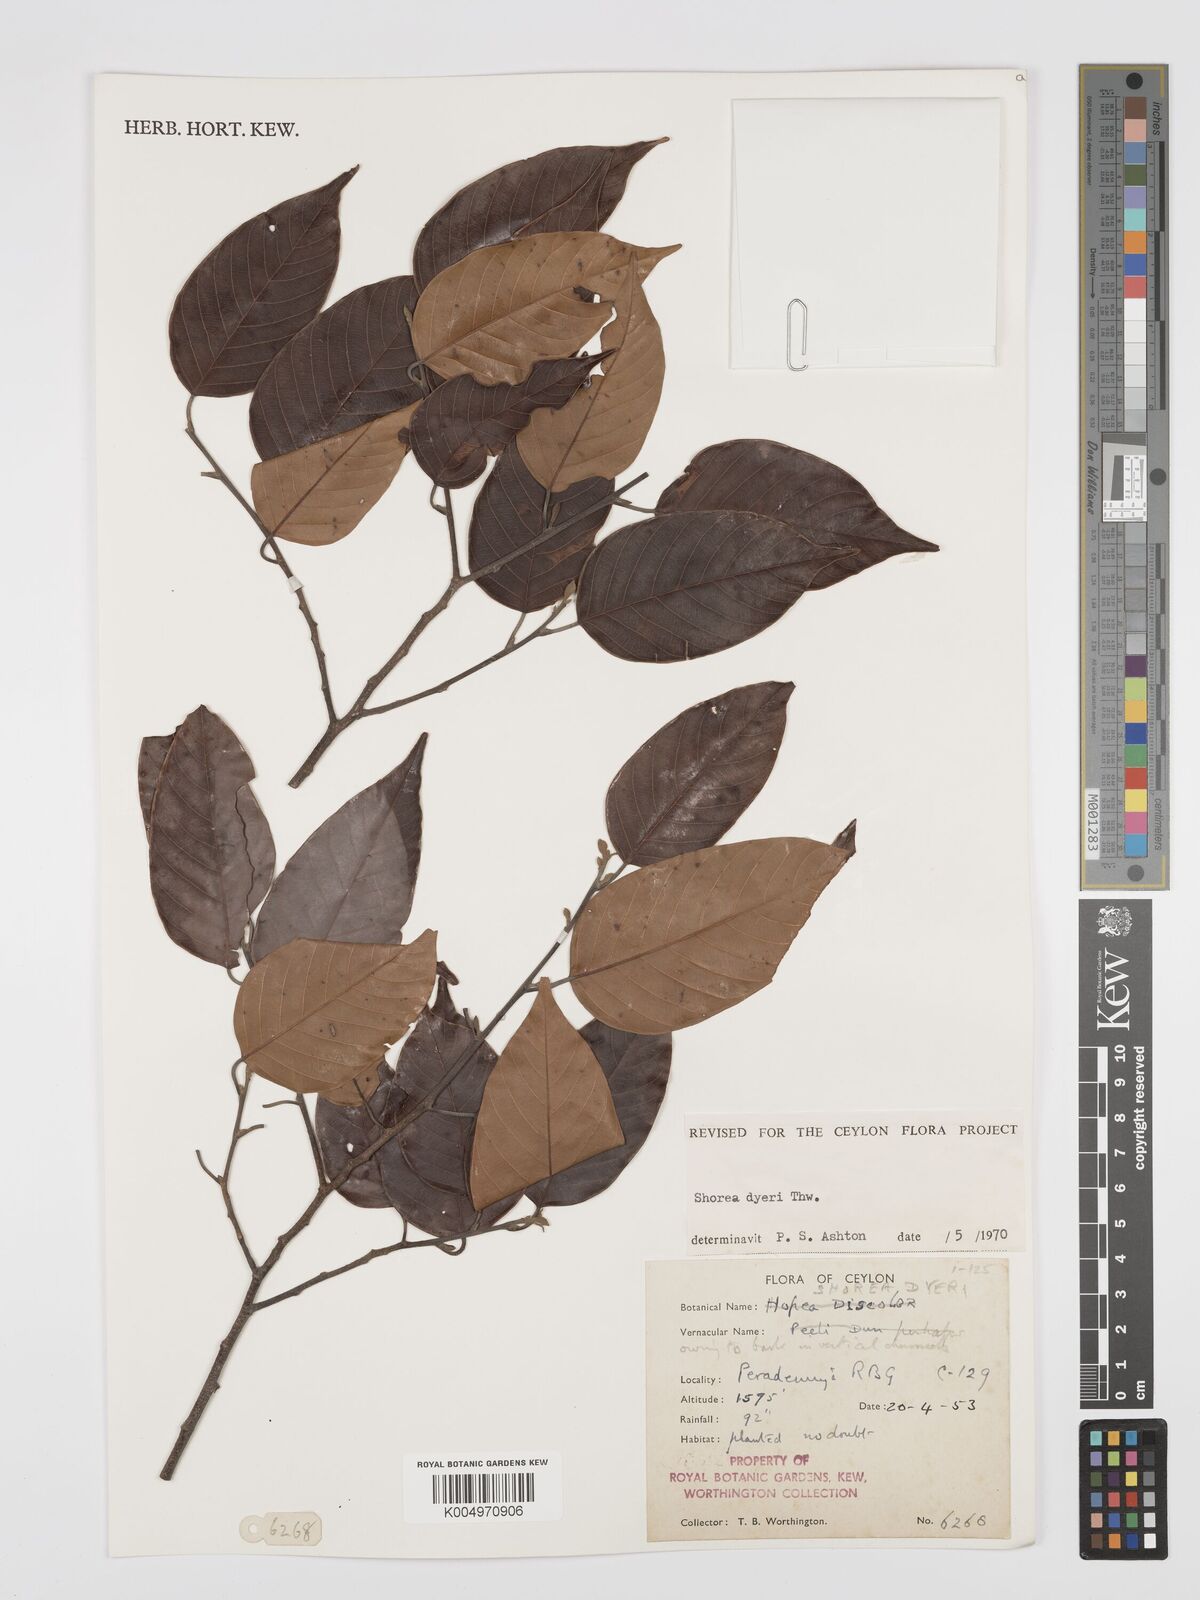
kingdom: Plantae
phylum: Tracheophyta
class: Magnoliopsida
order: Malvales
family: Dipterocarpaceae
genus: Shorea
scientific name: Shorea dyeri
